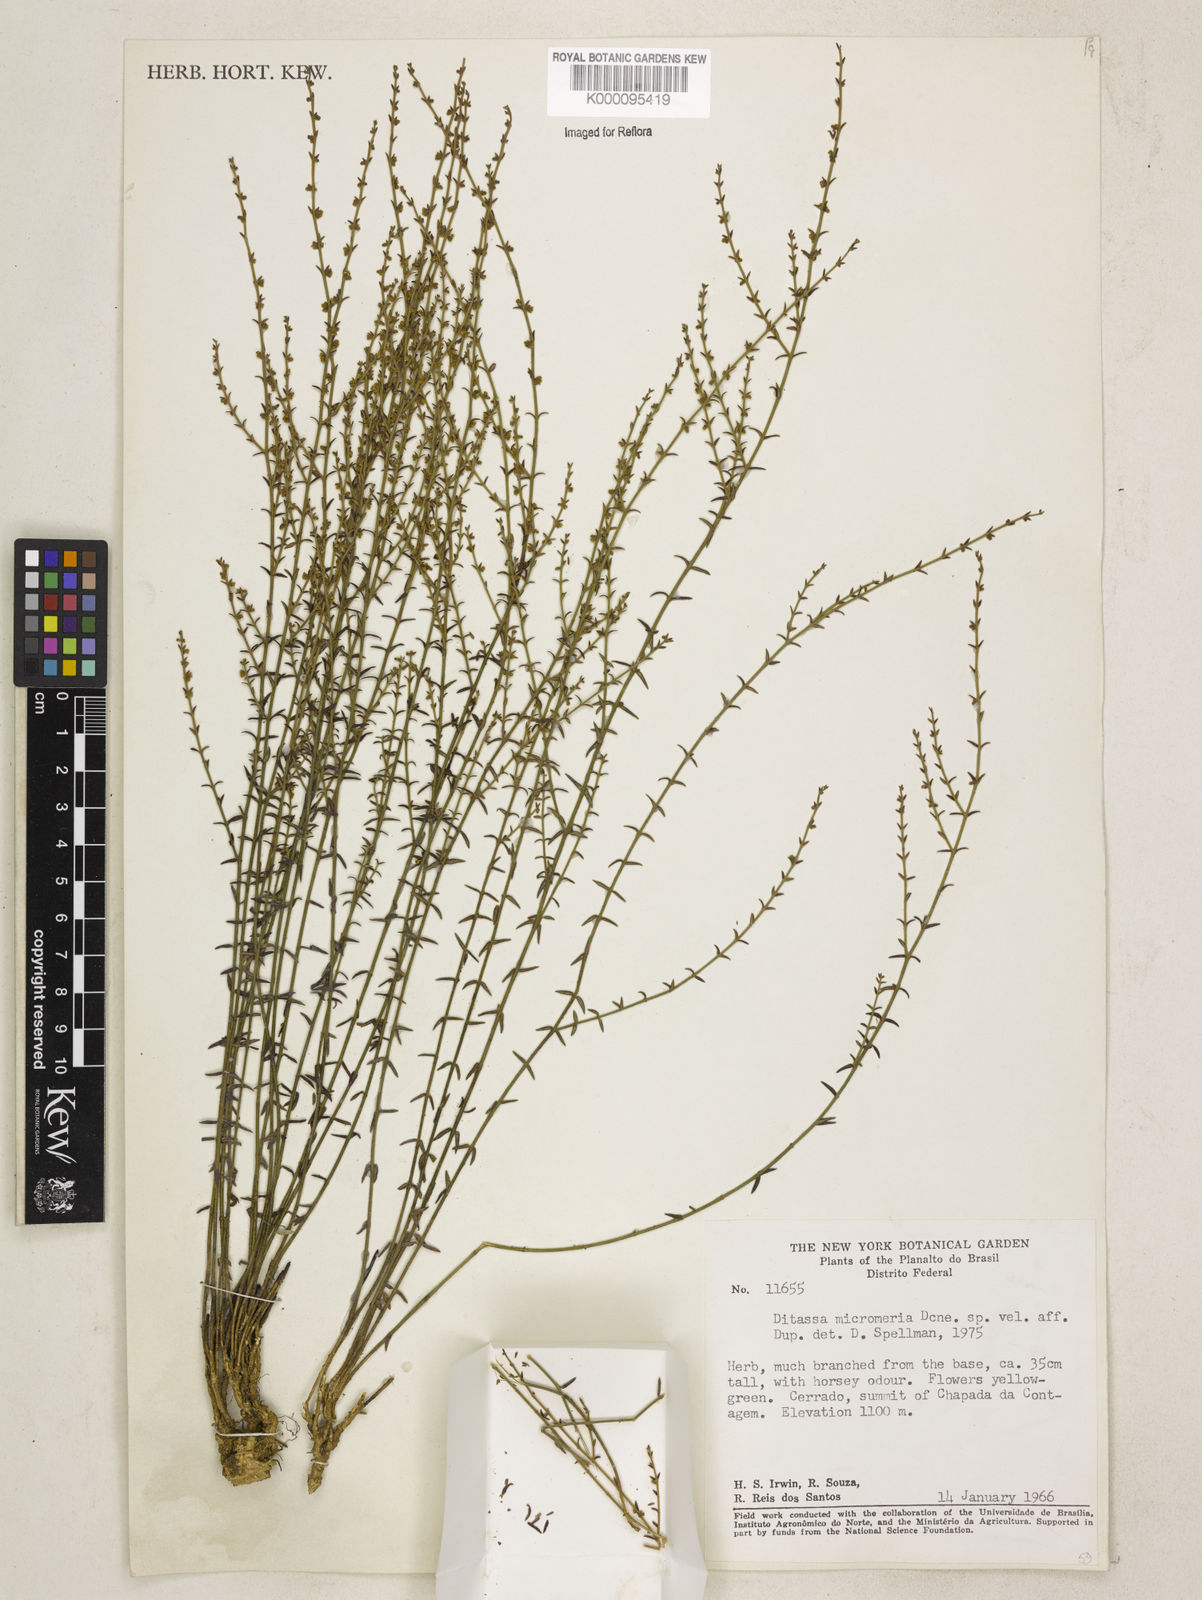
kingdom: Plantae
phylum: Tracheophyta
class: Magnoliopsida
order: Gentianales
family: Apocynaceae
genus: Minaria
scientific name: Minaria micromeria
